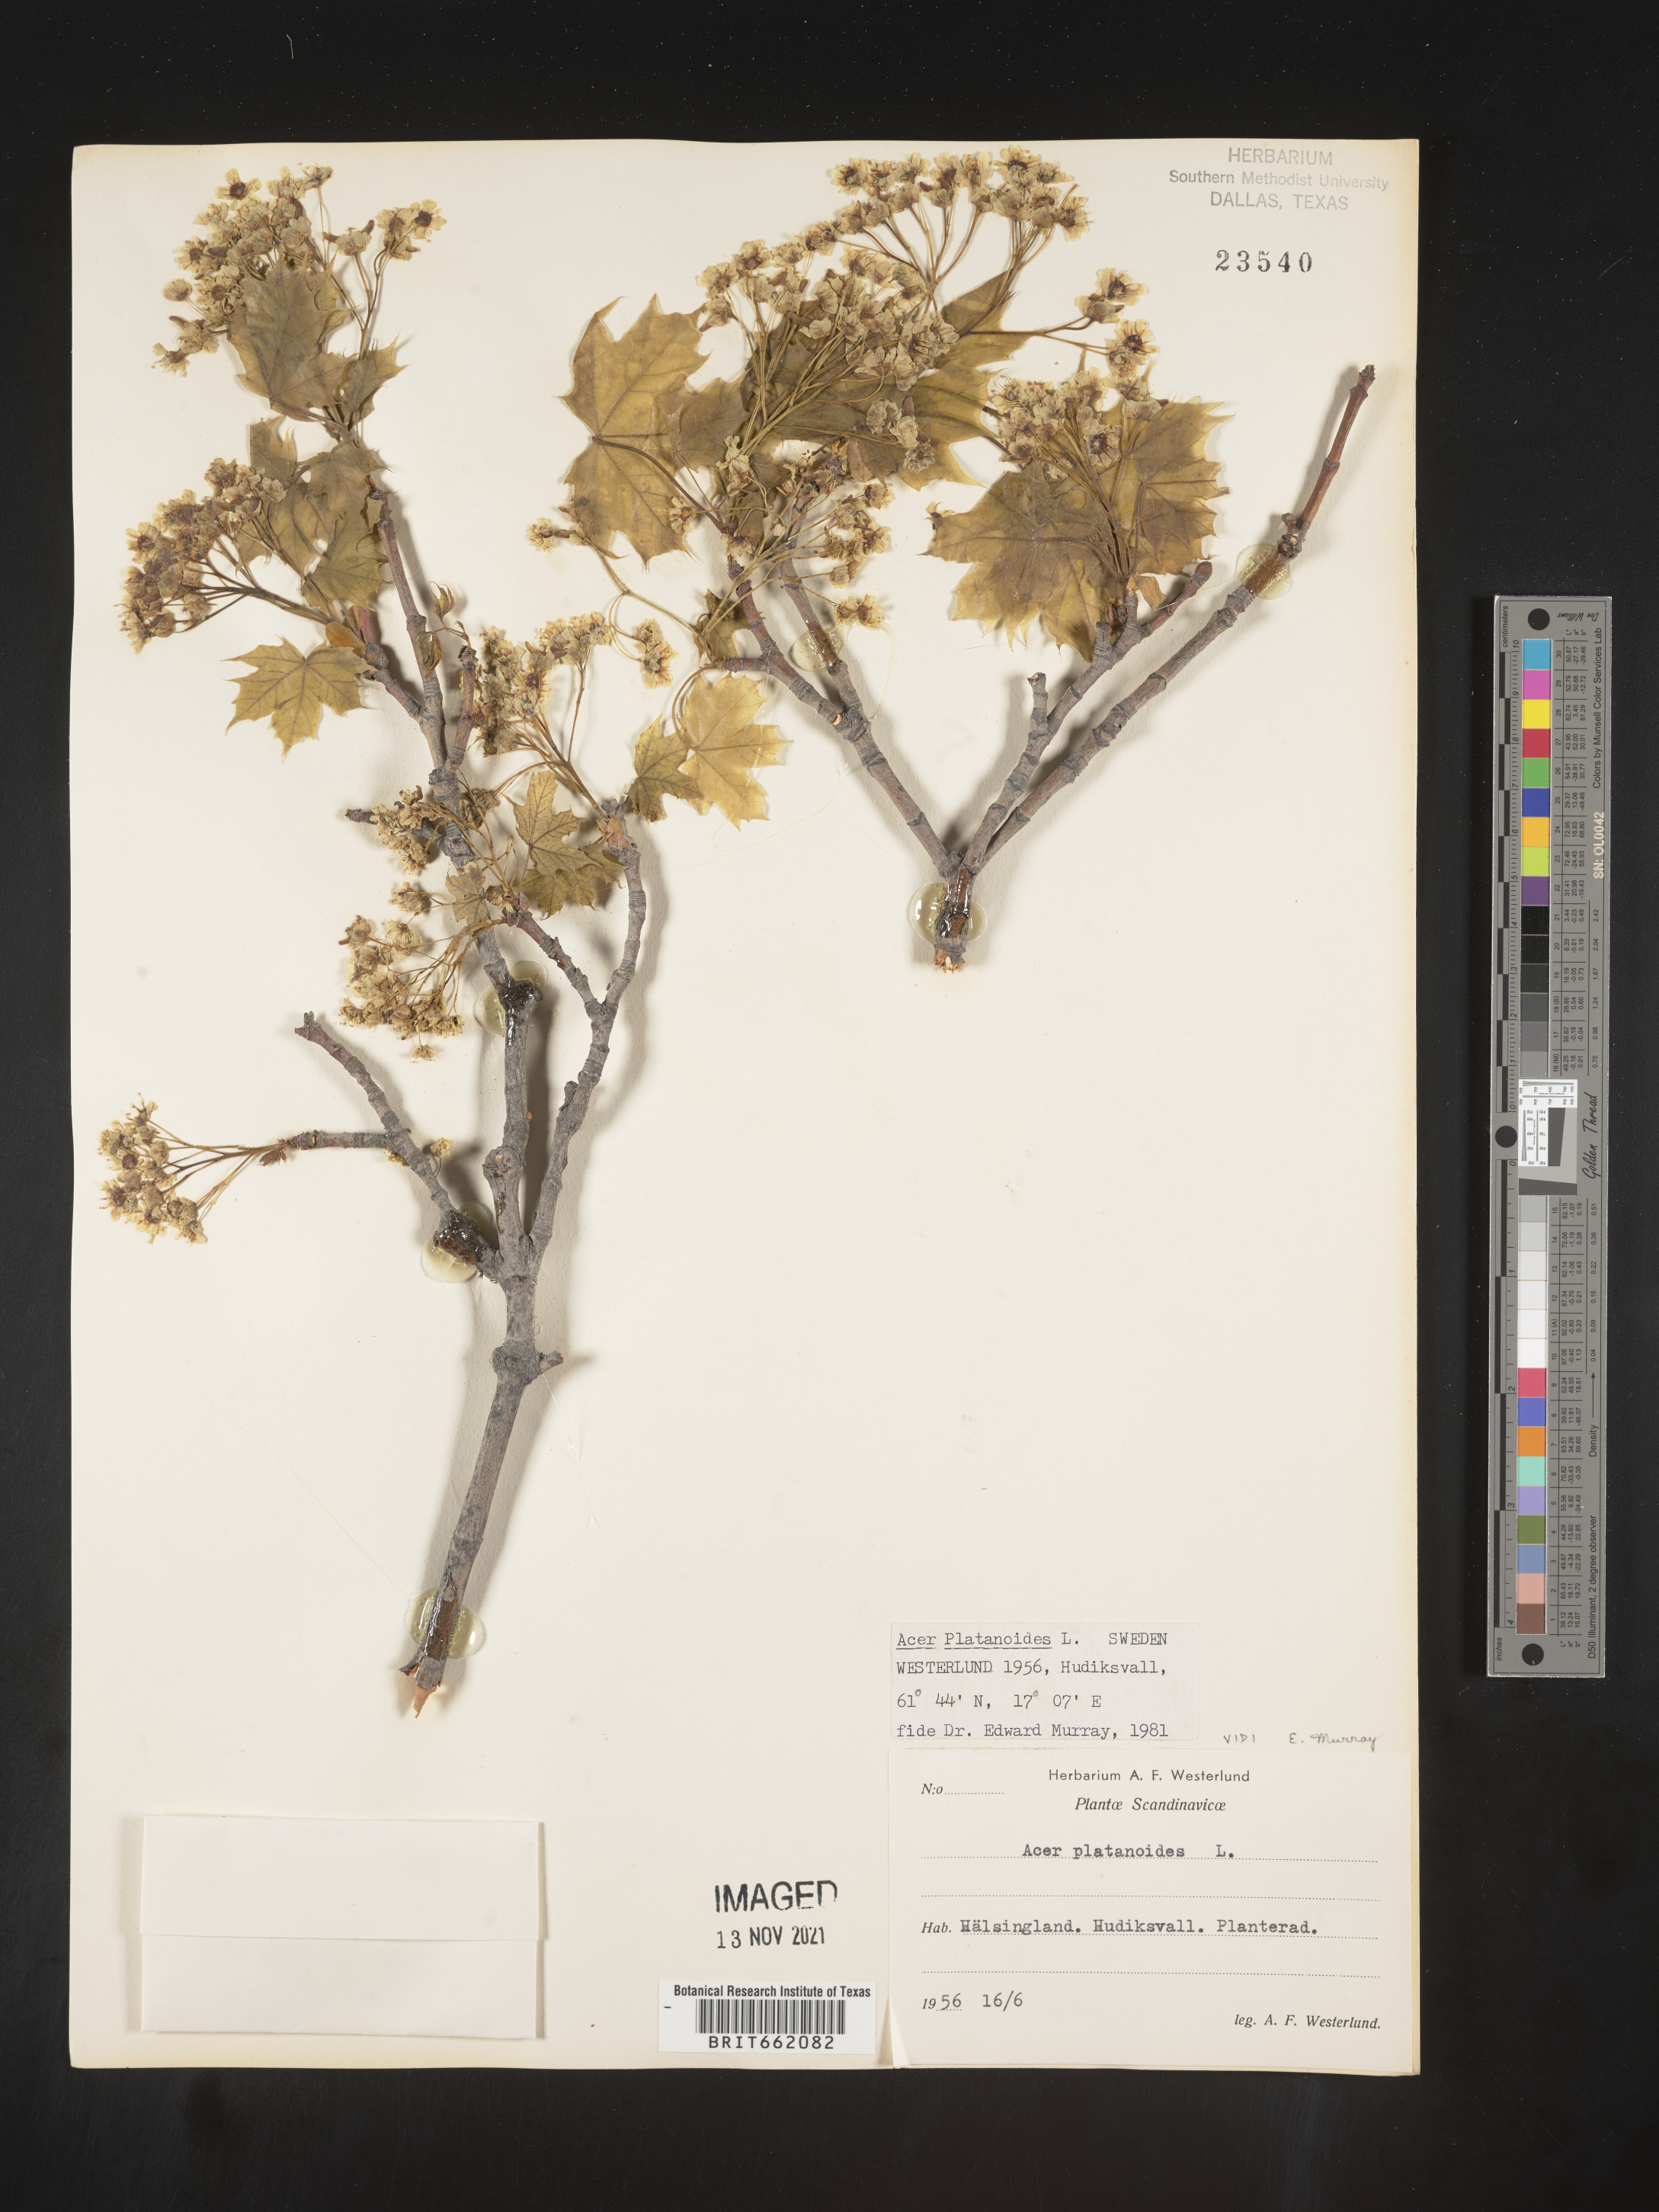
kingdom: Plantae
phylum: Tracheophyta
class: Magnoliopsida
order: Sapindales
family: Sapindaceae
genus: Acer
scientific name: Acer
